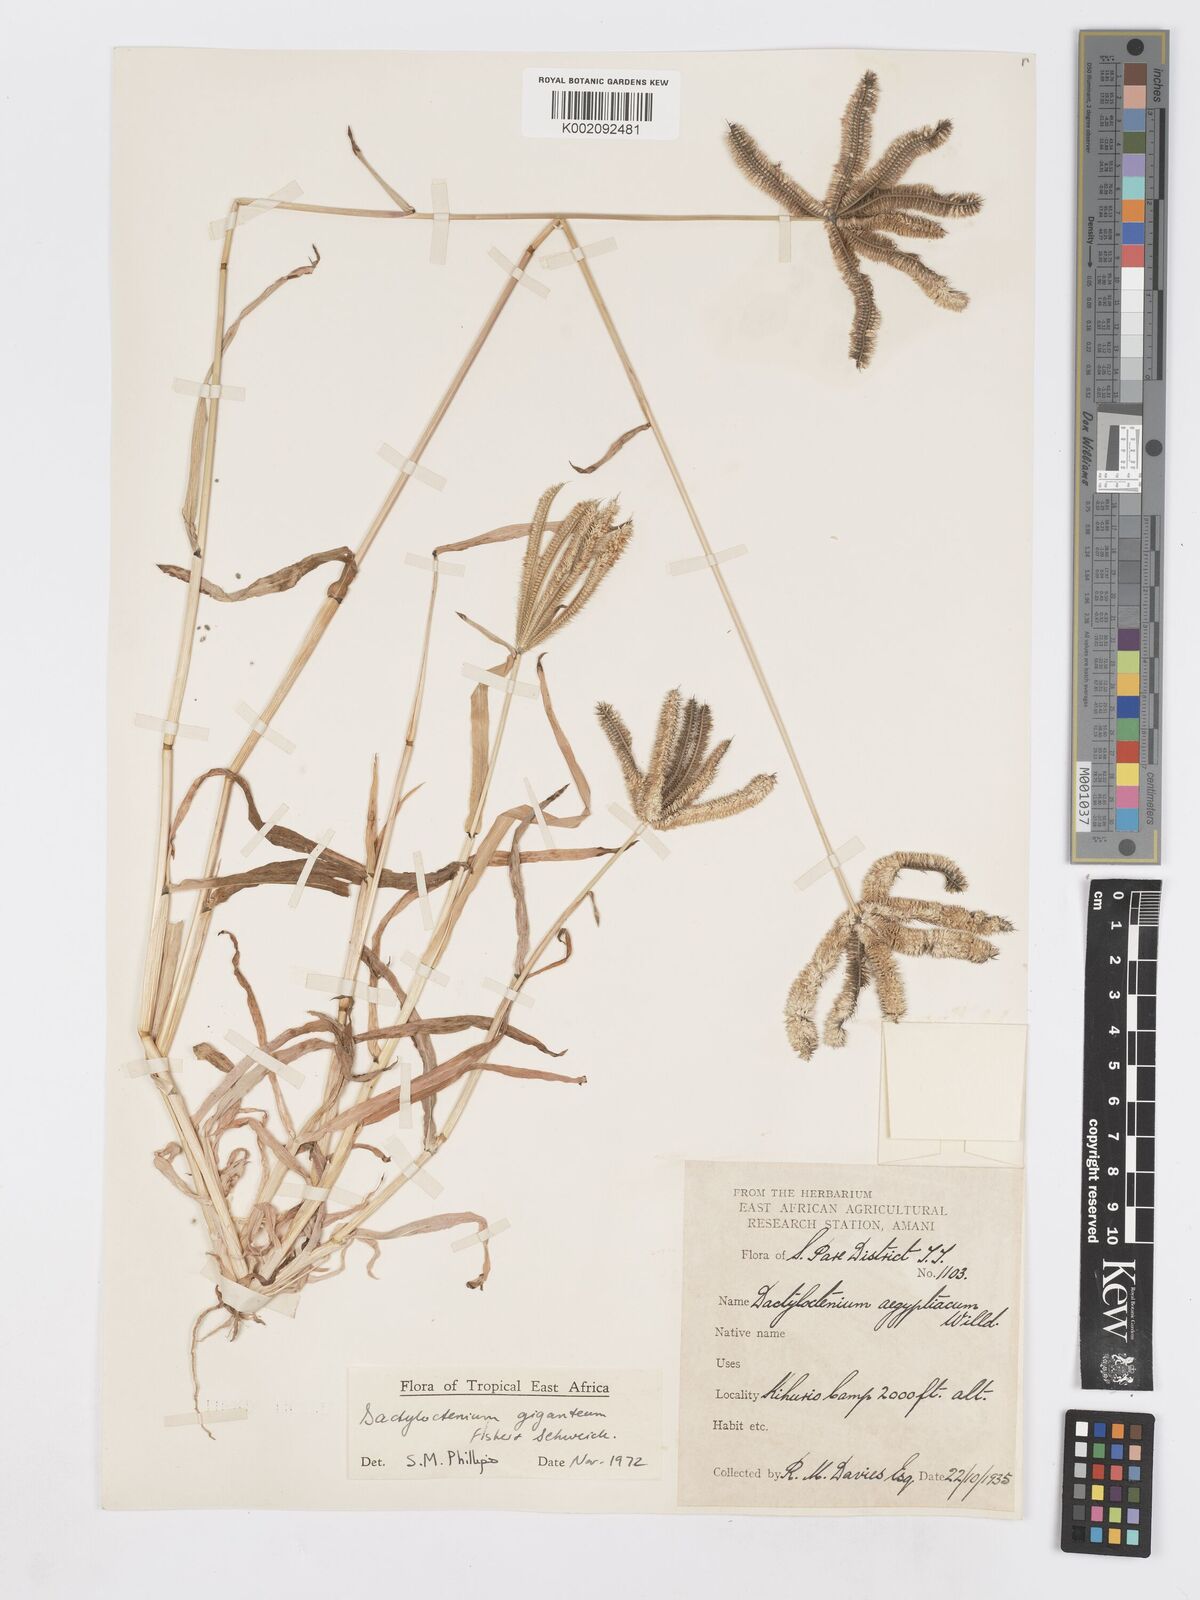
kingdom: Plantae
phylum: Tracheophyta
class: Liliopsida
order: Poales
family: Poaceae
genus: Dactyloctenium
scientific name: Dactyloctenium giganteum
